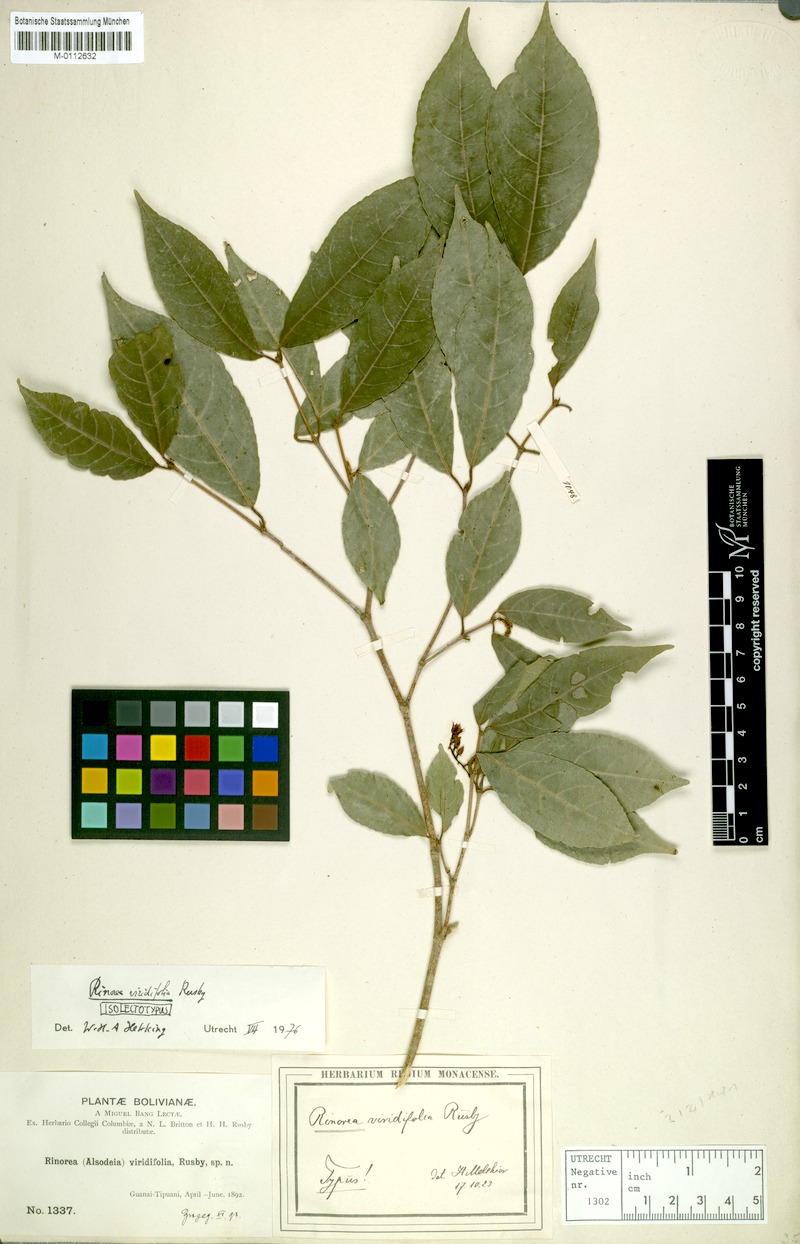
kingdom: Plantae
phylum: Tracheophyta
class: Magnoliopsida
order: Malpighiales
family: Violaceae
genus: Rinorea
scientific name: Rinorea viridifolia
